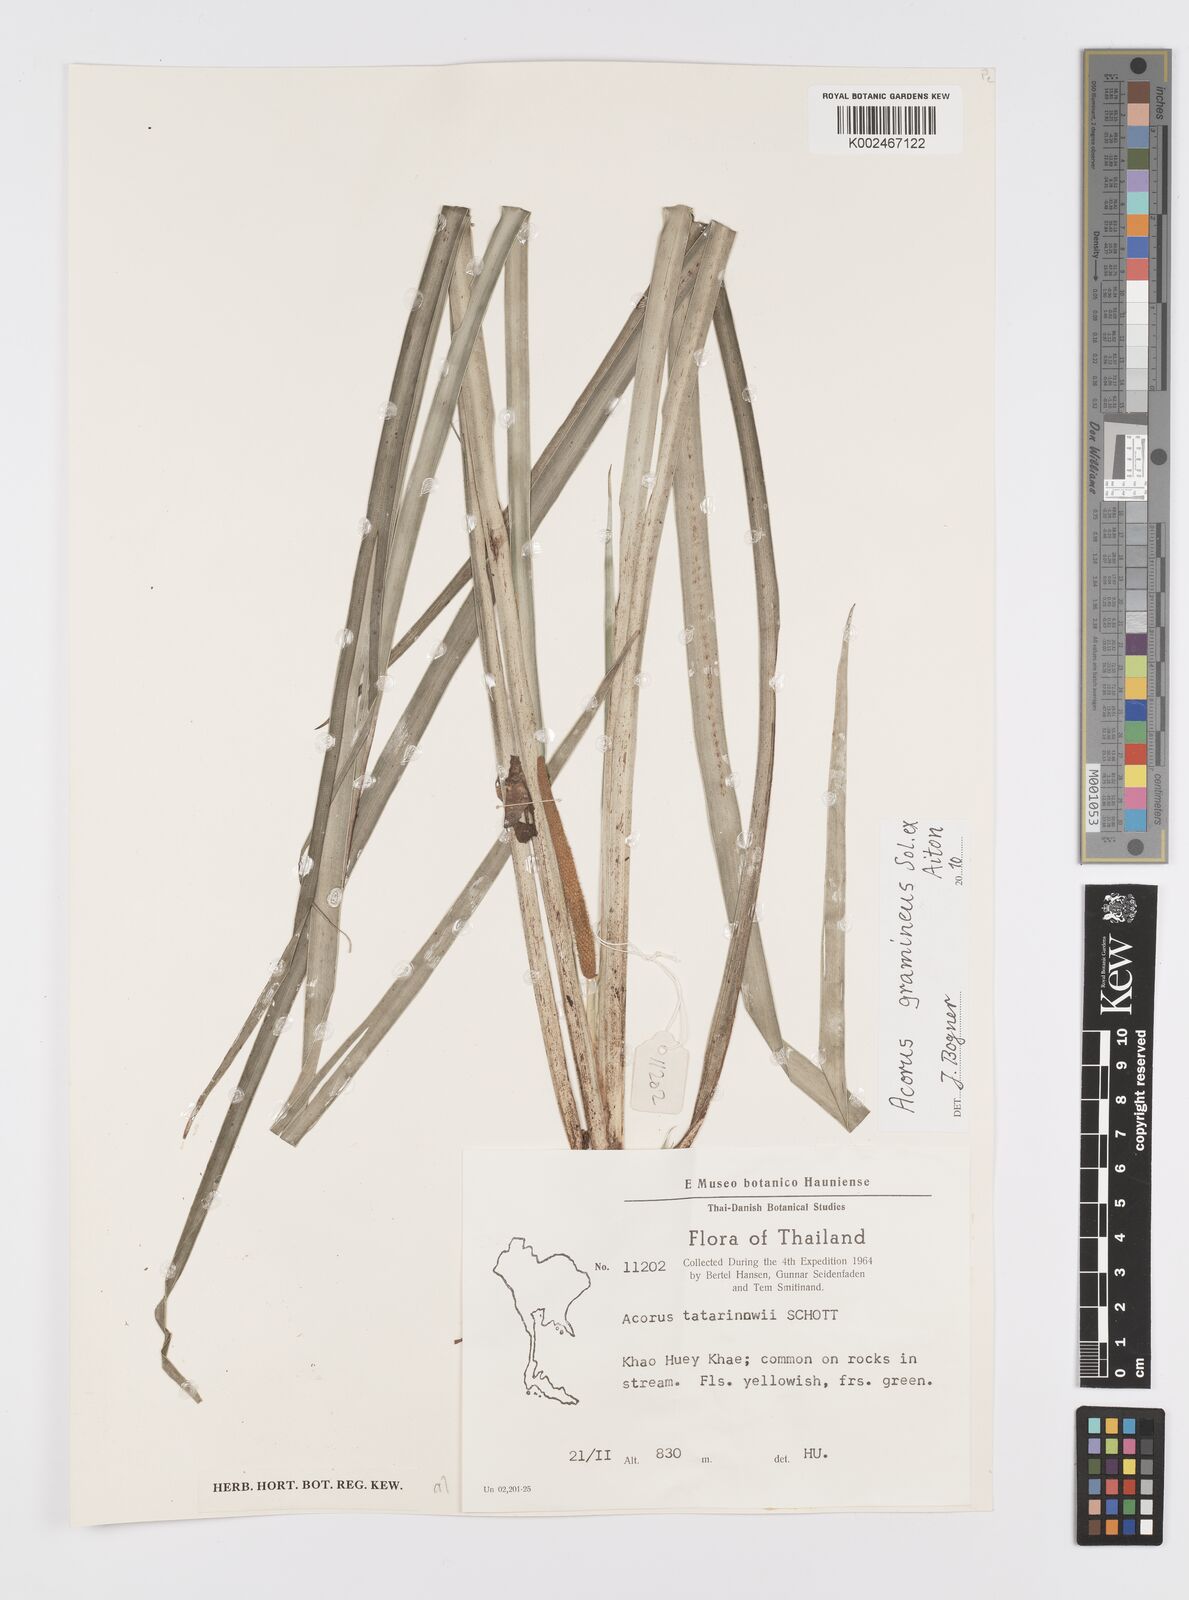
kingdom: Plantae
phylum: Tracheophyta
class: Liliopsida
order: Acorales
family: Acoraceae
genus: Acorus
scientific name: Acorus gramineus
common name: Slender sweet-flag
